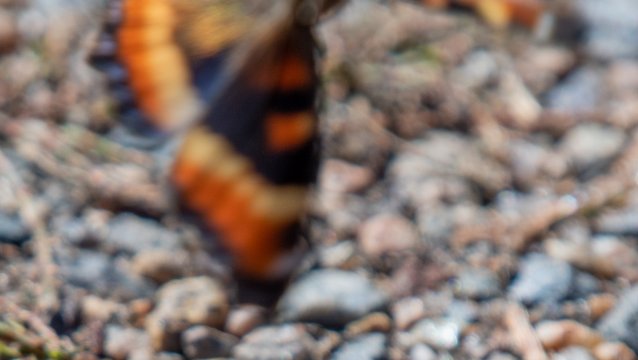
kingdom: Animalia
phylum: Arthropoda
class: Insecta
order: Lepidoptera
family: Nymphalidae
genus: Aglais
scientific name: Aglais milberti
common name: Milbert's Tortoiseshell
